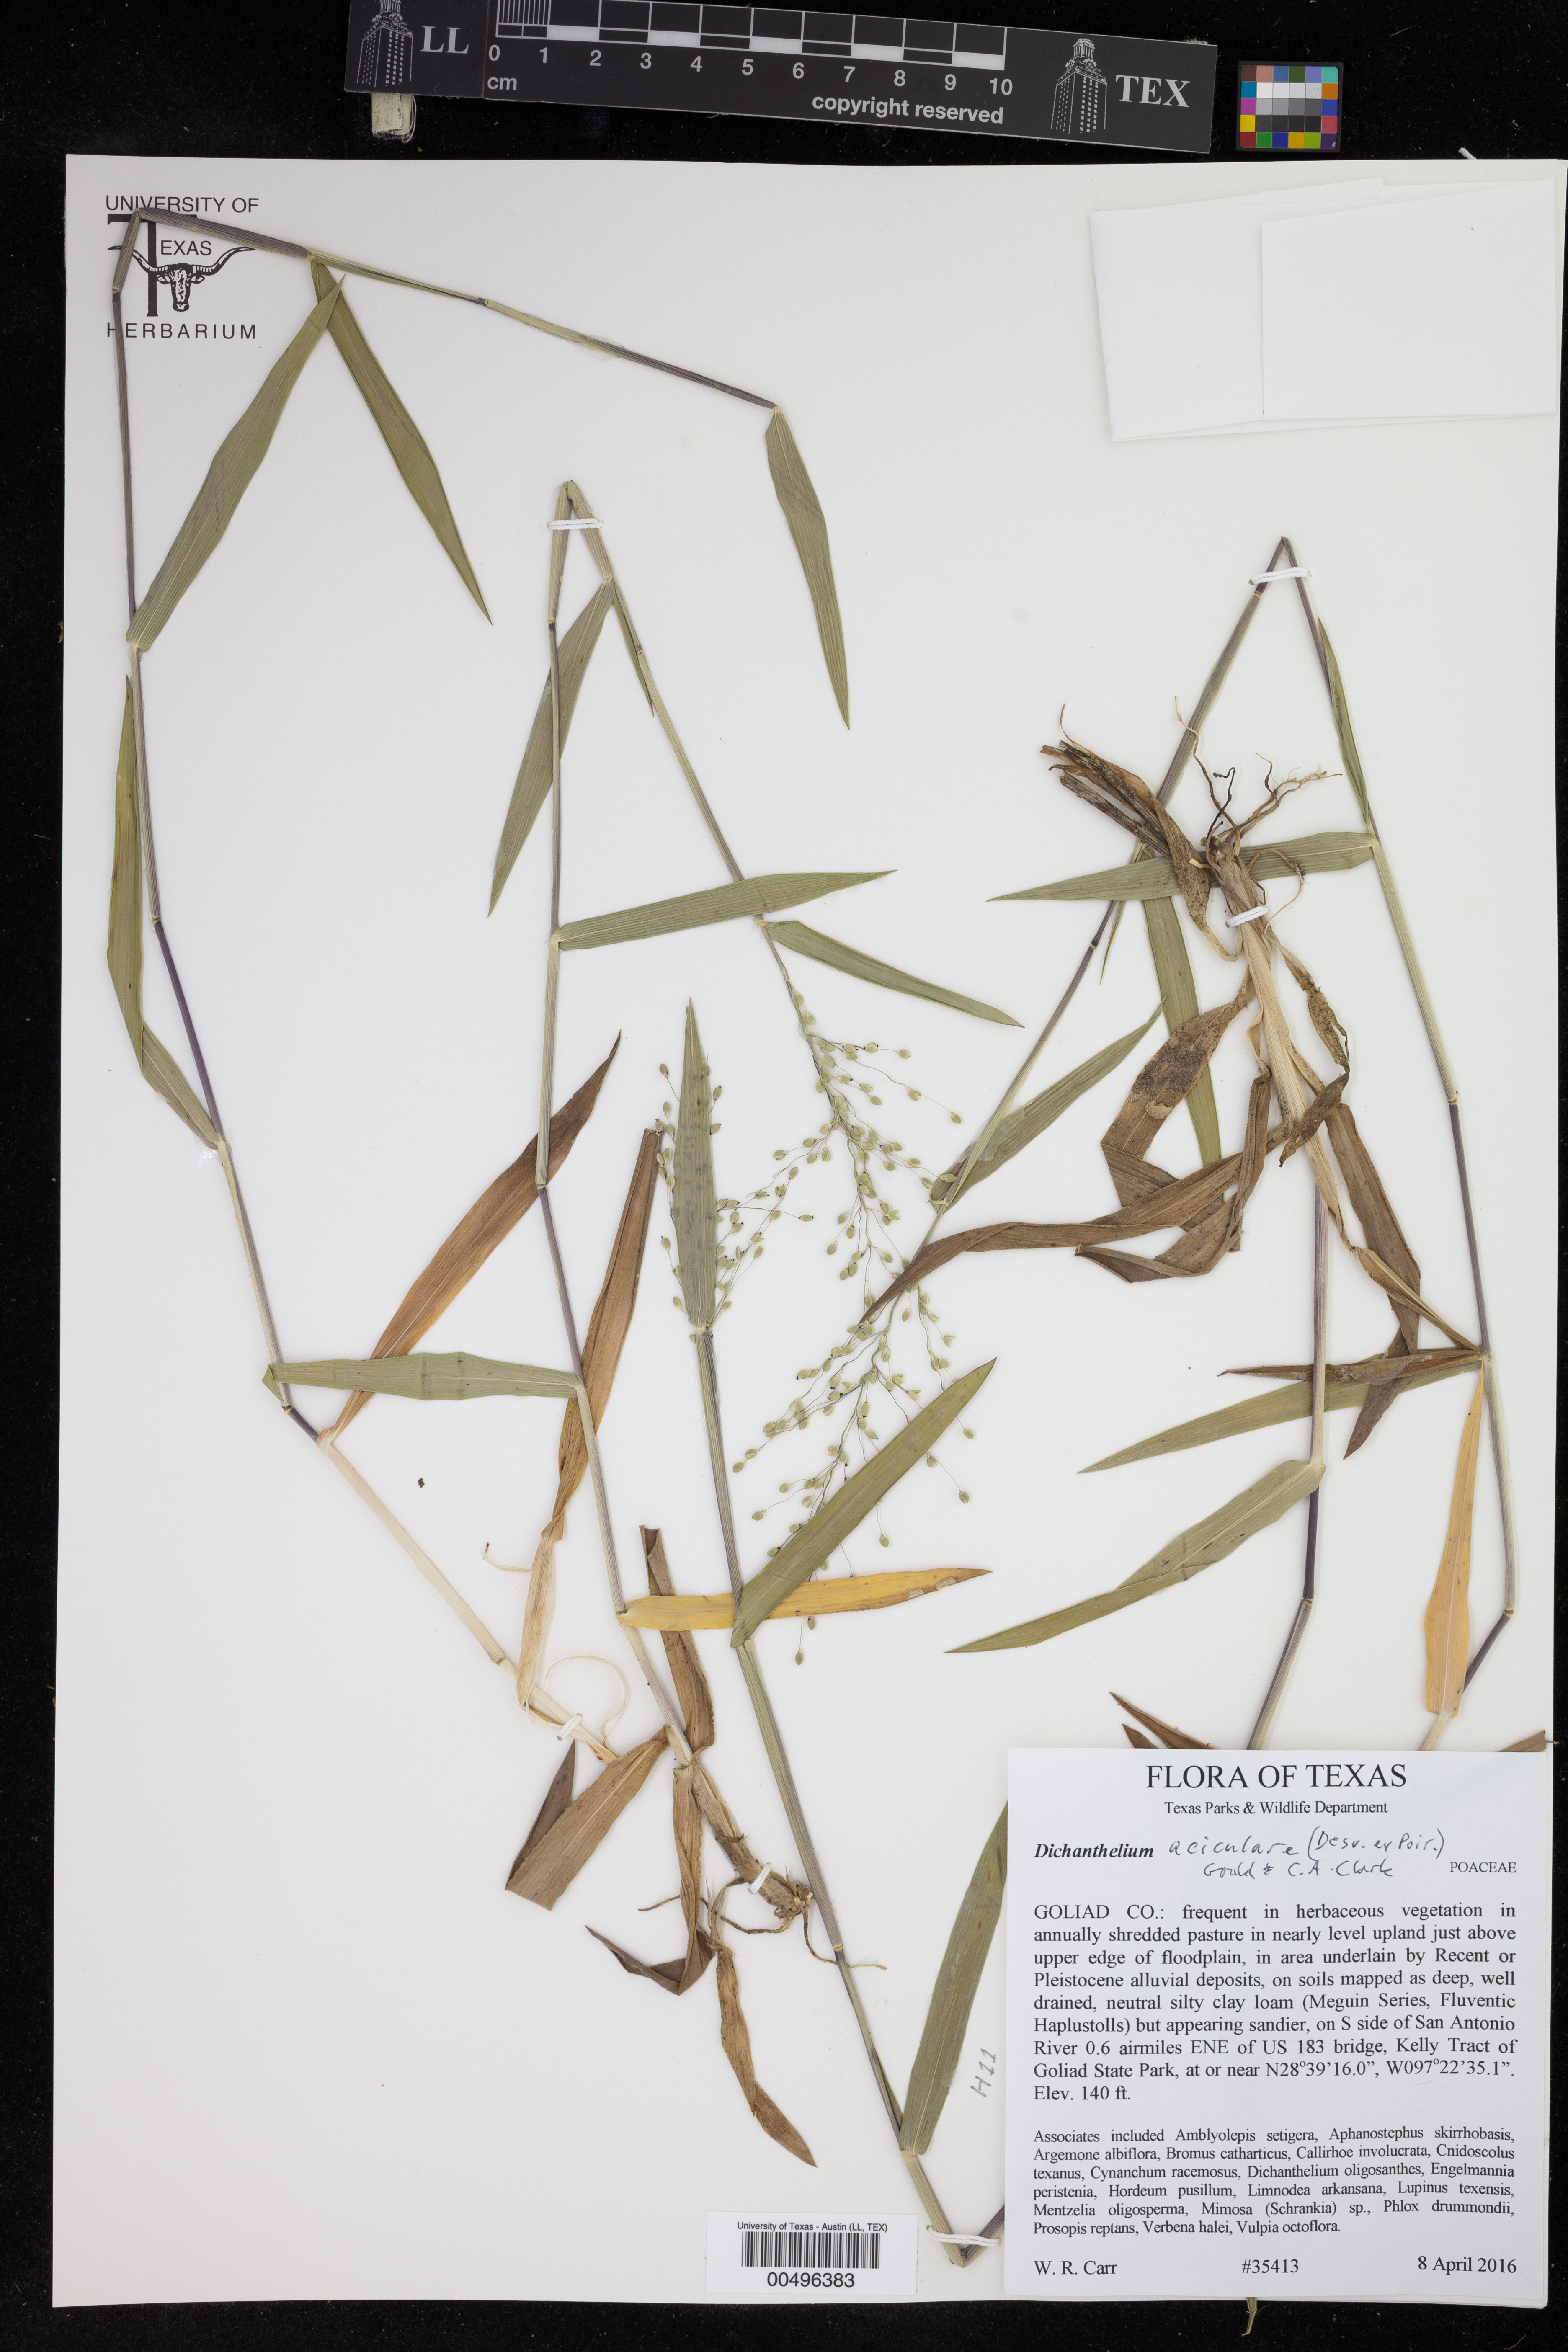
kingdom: Plantae
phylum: Tracheophyta
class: Liliopsida
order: Poales
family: Poaceae
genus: Dichanthelium
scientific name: Dichanthelium aciculare
